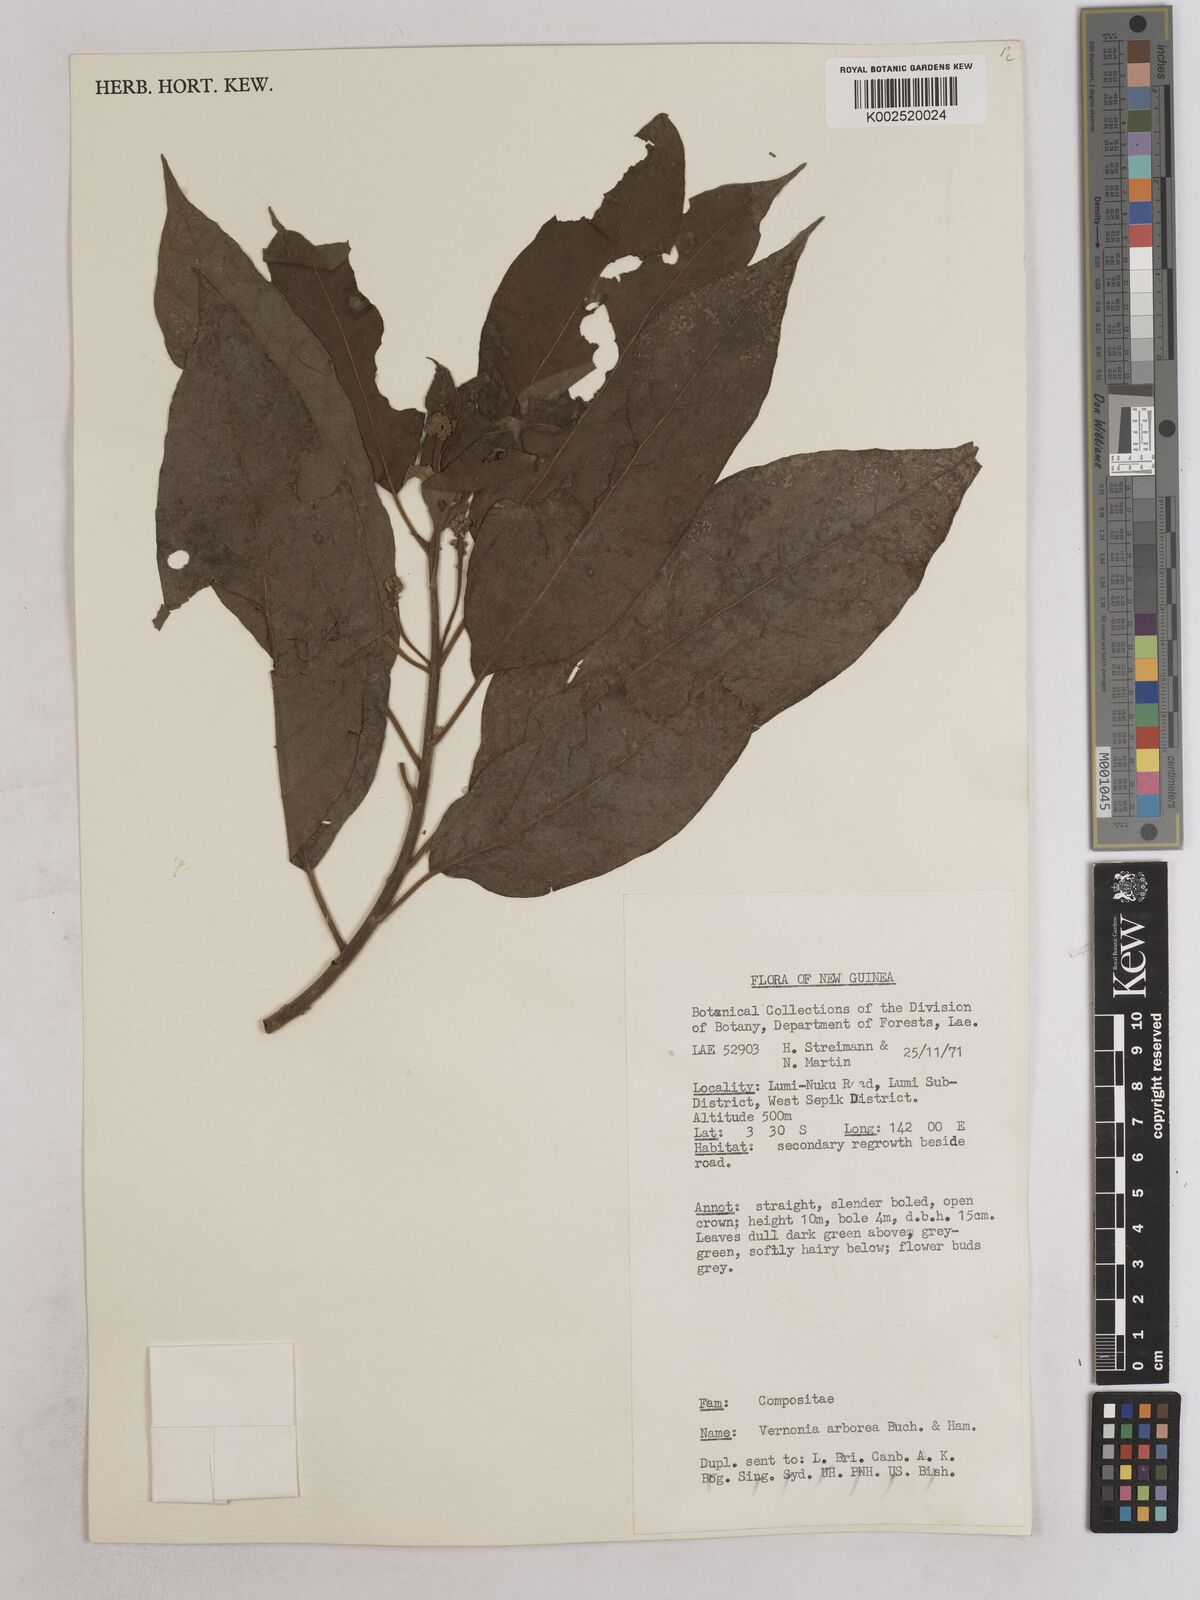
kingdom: Plantae
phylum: Tracheophyta
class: Magnoliopsida
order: Asterales
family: Asteraceae
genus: Strobocalyx
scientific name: Strobocalyx arborea
